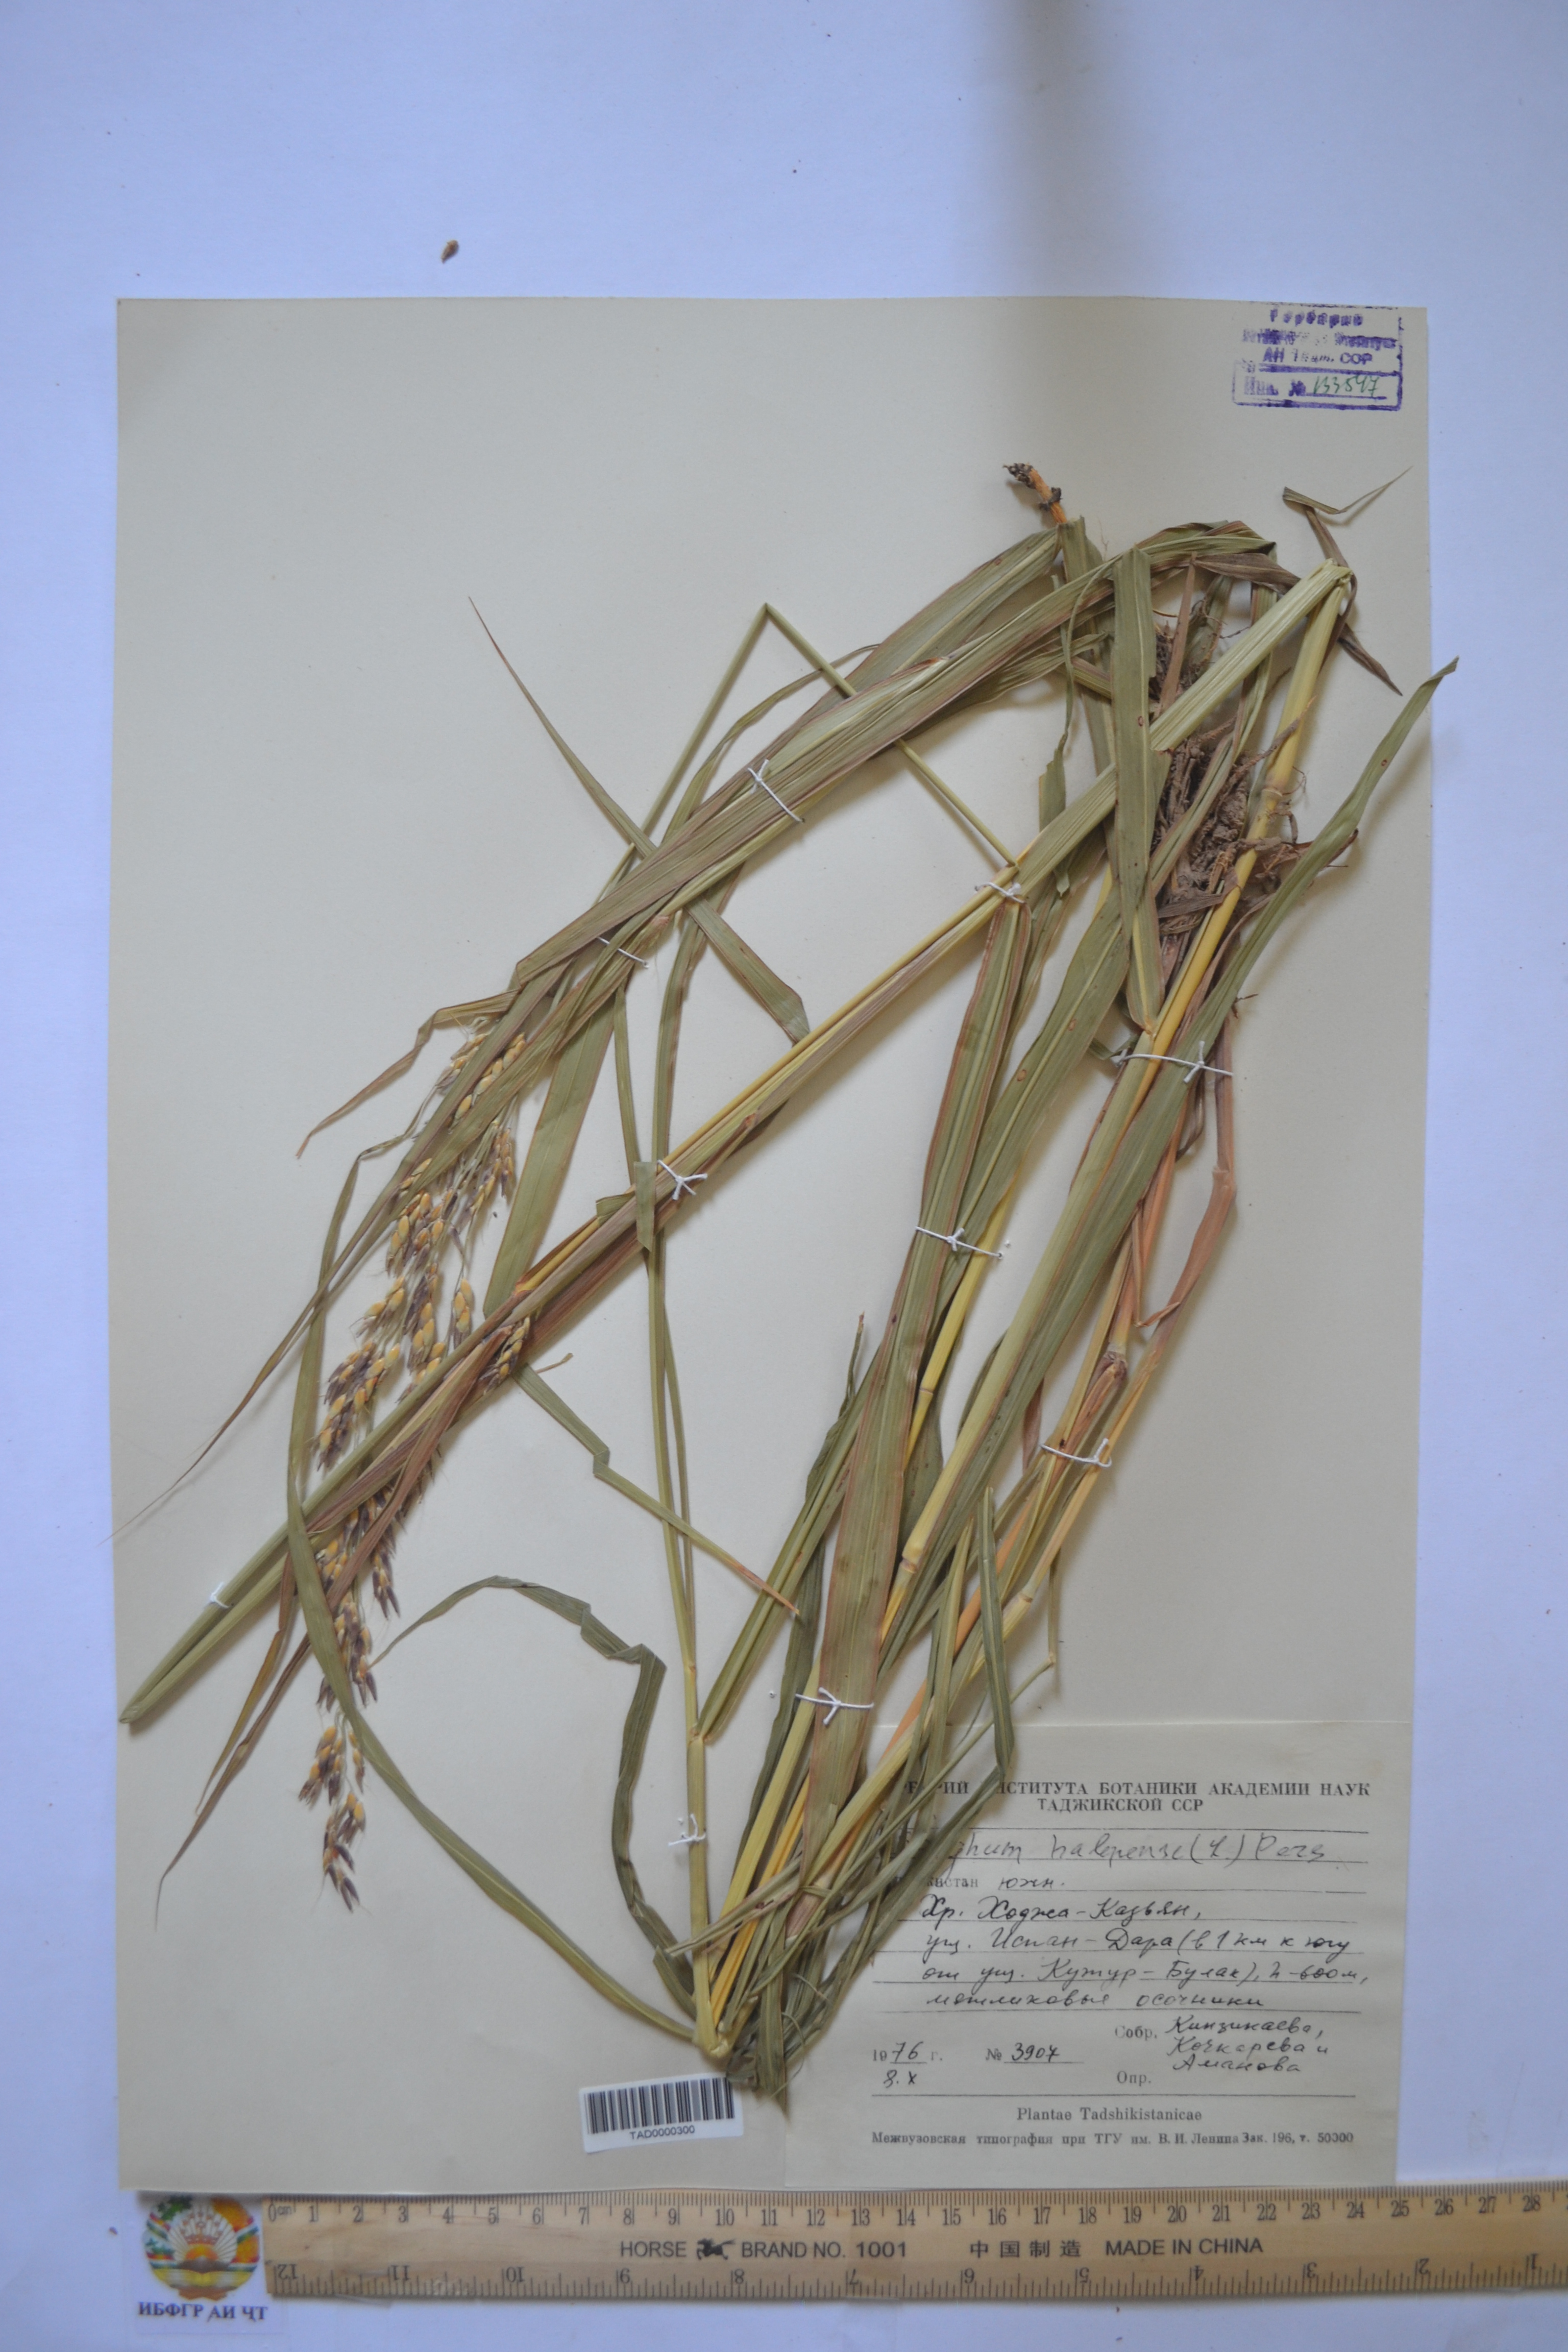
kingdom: Plantae
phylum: Tracheophyta
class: Liliopsida
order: Poales
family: Poaceae
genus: Sorghum
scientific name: Sorghum halepense
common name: Johnson-grass
